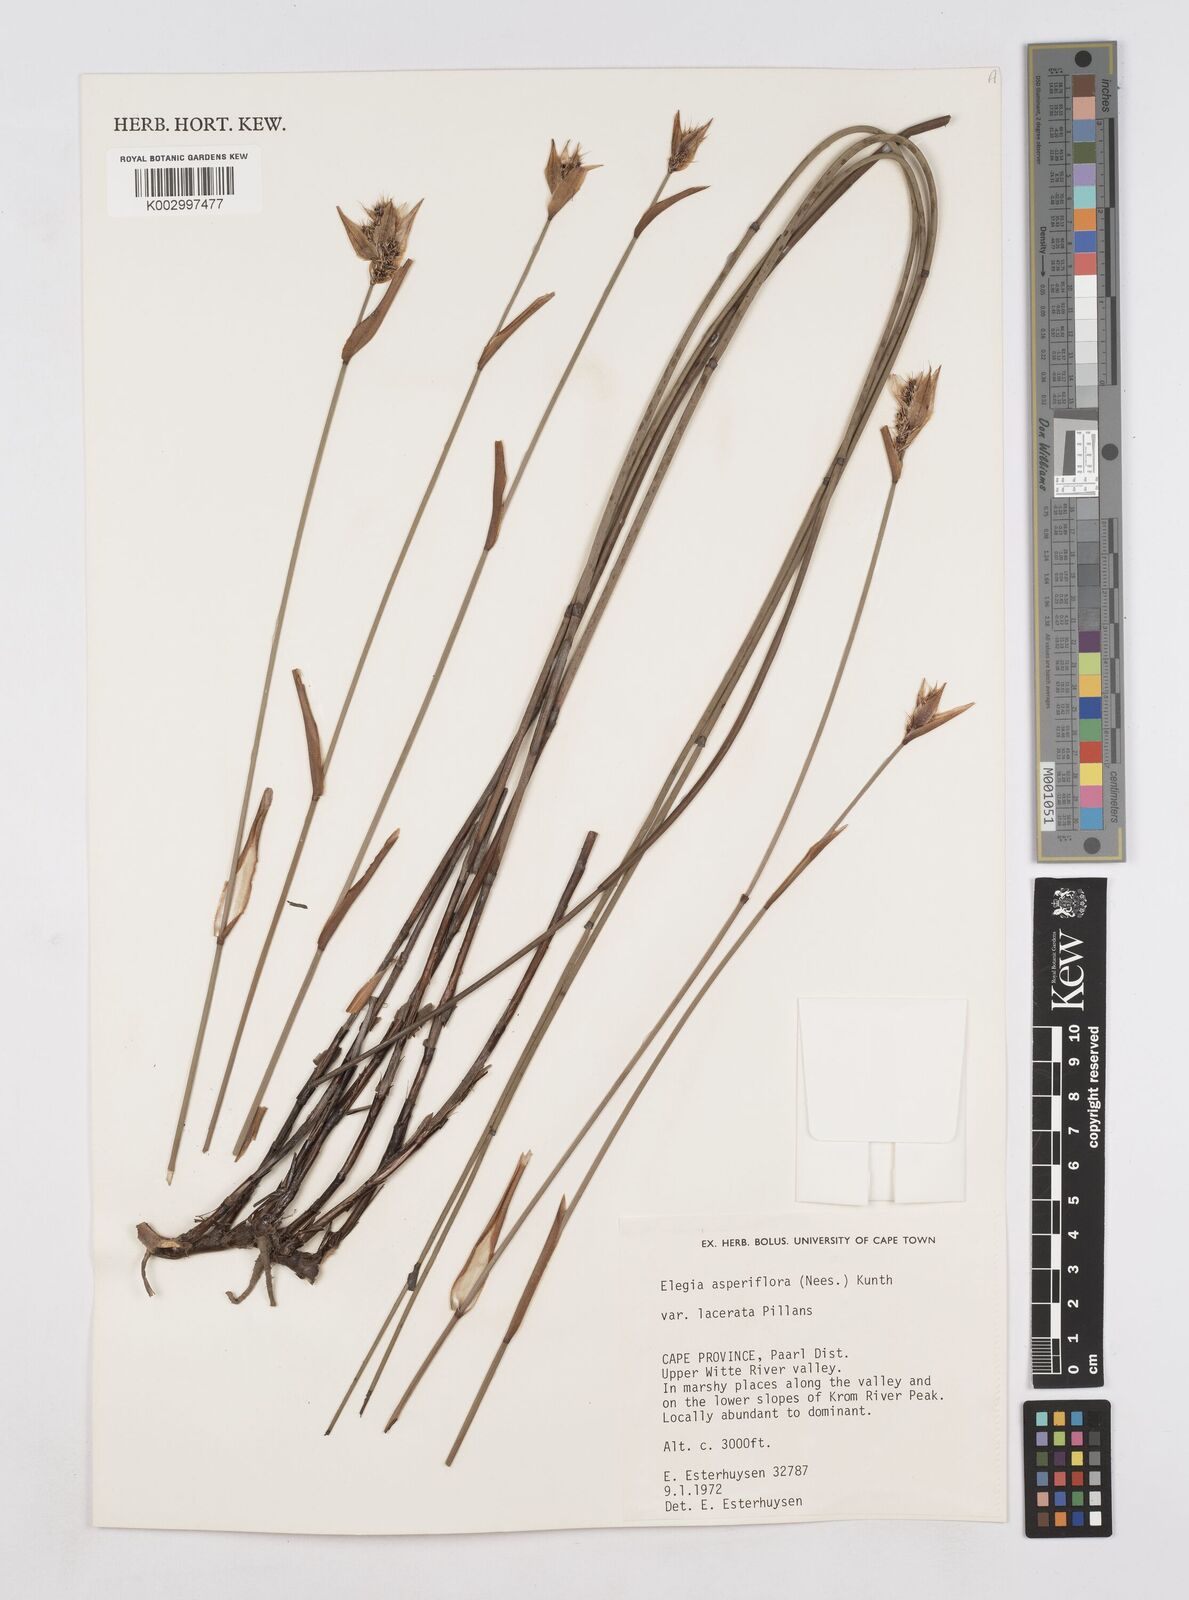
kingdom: Plantae
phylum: Tracheophyta
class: Liliopsida
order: Poales
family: Restionaceae
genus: Elegia
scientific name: Elegia asperiflora
